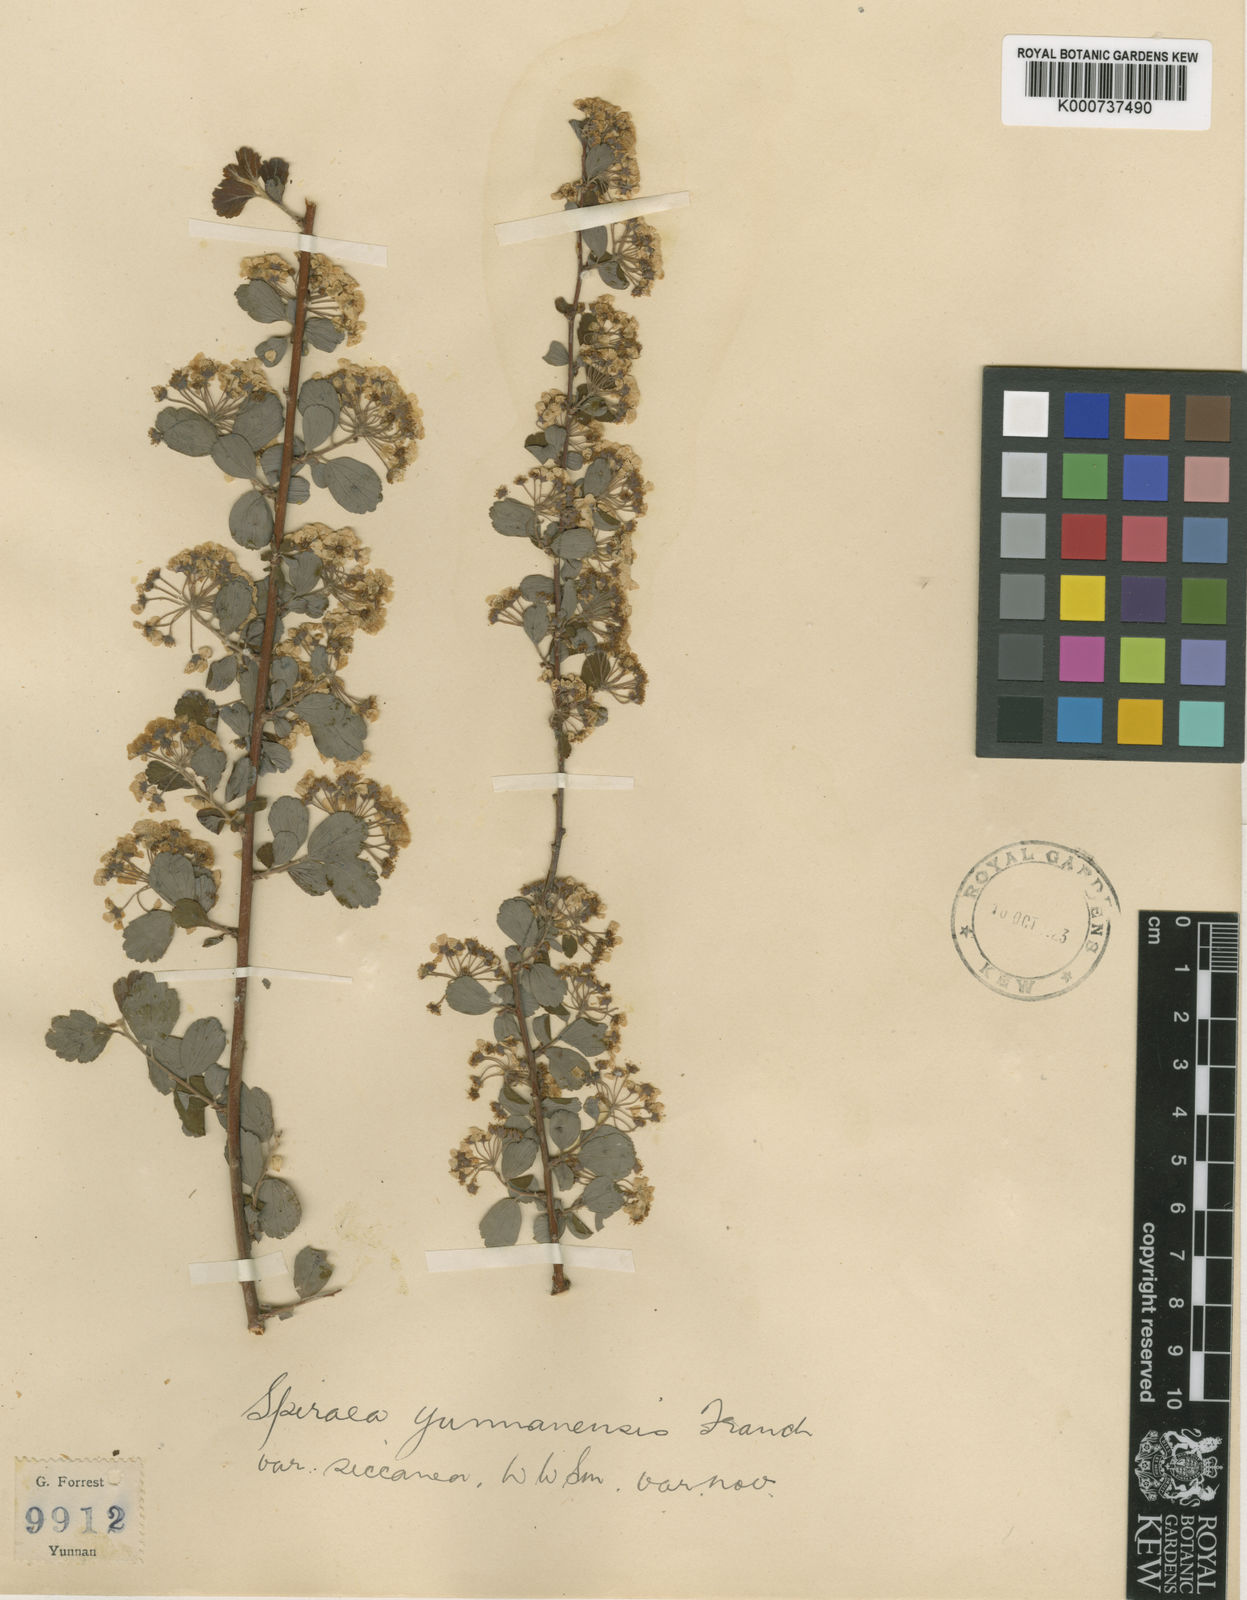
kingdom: Plantae
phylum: Tracheophyta
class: Magnoliopsida
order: Rosales
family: Rosaceae
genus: Spiraea
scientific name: Spiraea yunnanensis
